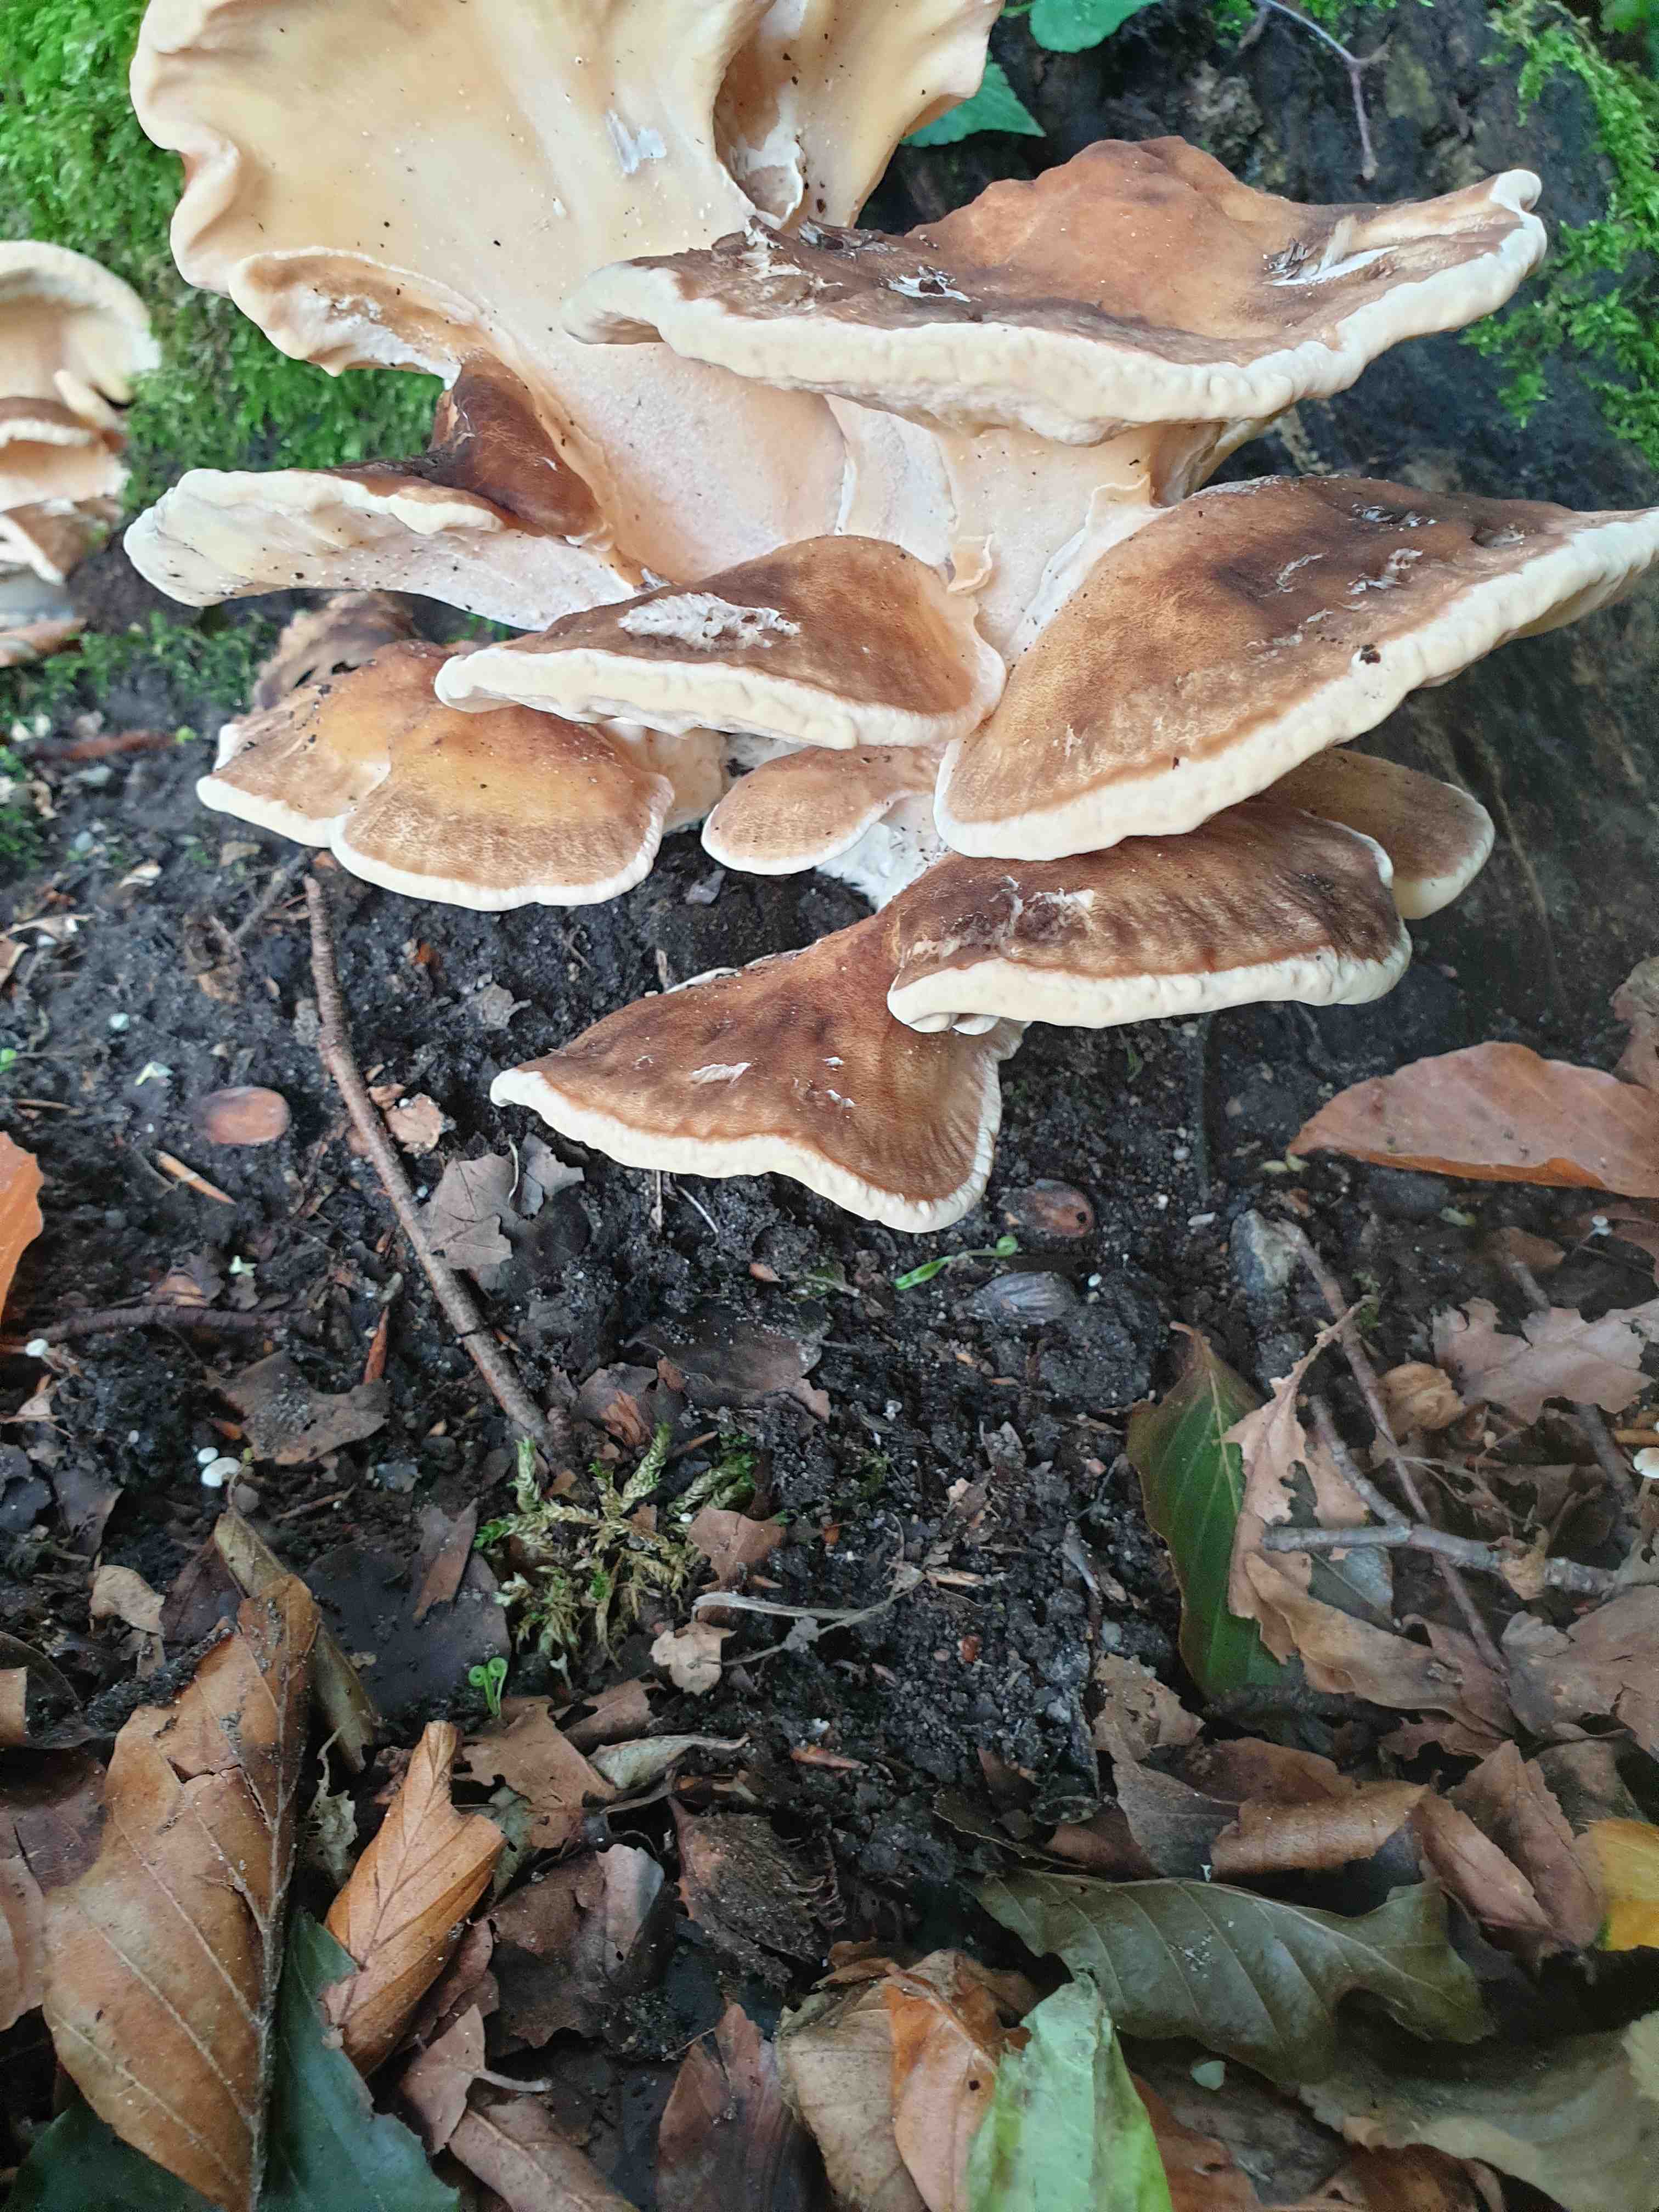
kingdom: Fungi
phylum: Basidiomycota
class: Agaricomycetes
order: Polyporales
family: Meripilaceae
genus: Meripilus
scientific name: Meripilus giganteus
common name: kæmpeporesvamp
